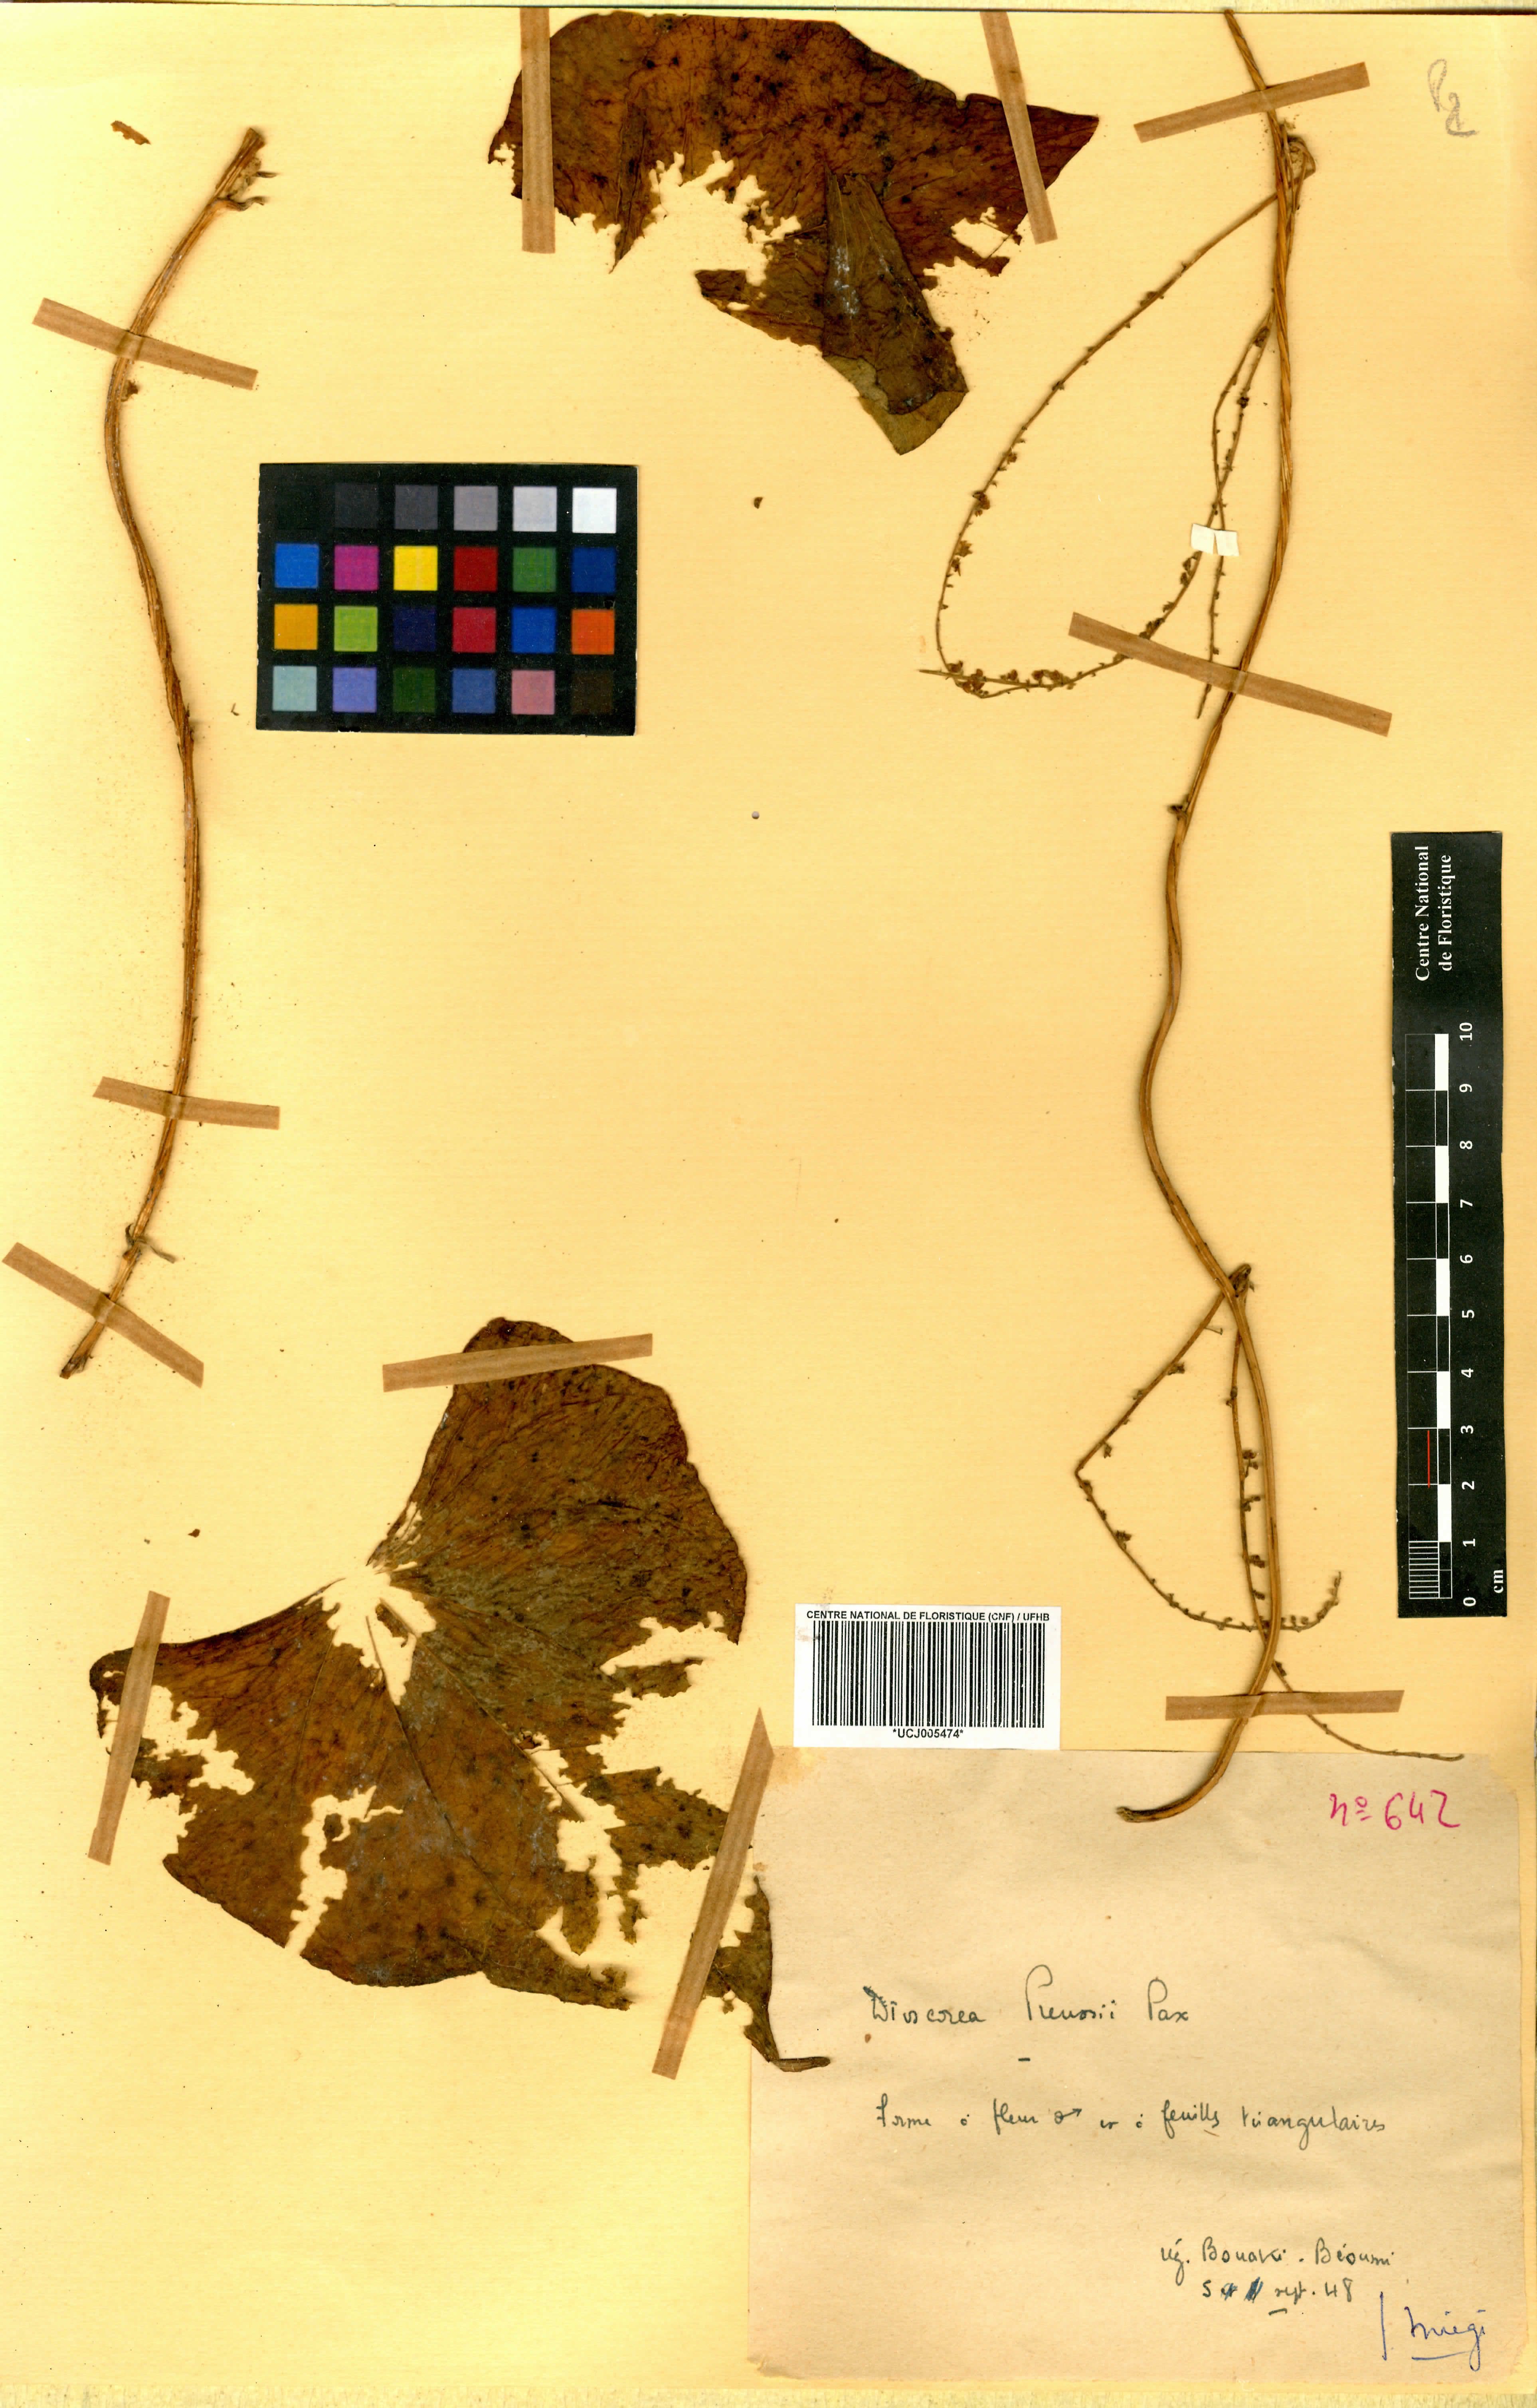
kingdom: Plantae
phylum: Tracheophyta
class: Liliopsida
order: Dioscoreales
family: Dioscoreaceae
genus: Dioscorea
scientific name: Dioscorea preussii
